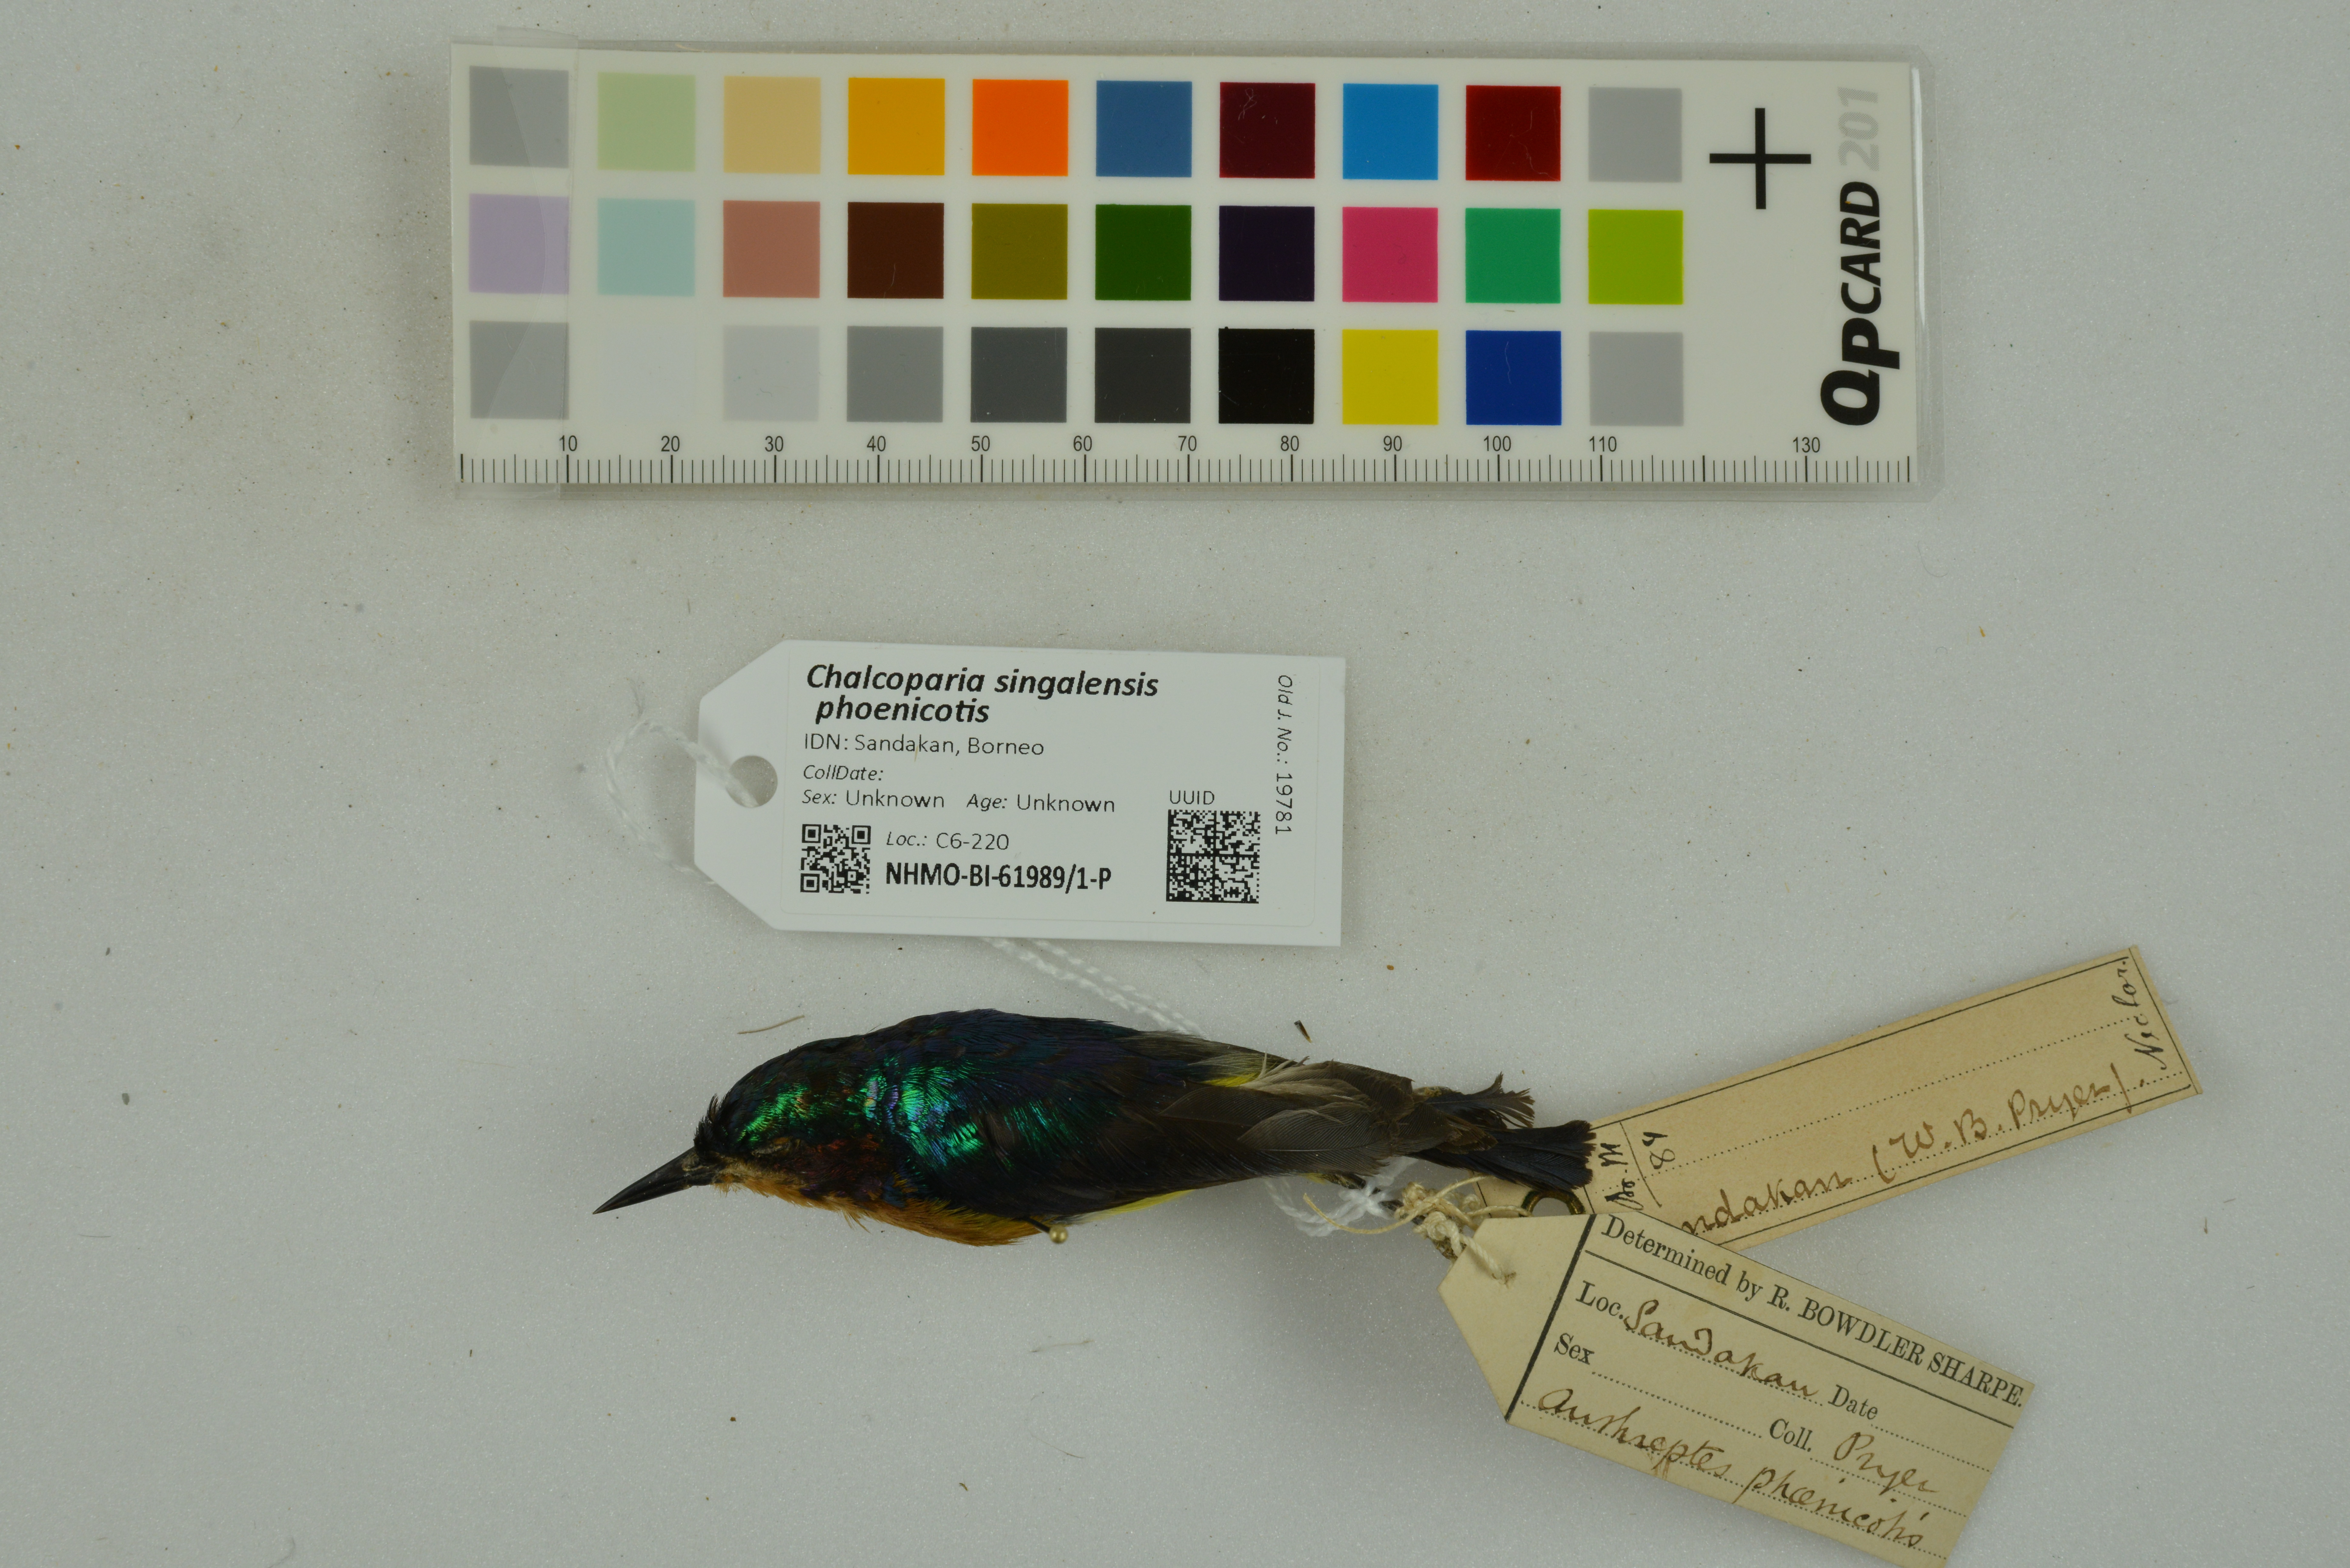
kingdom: Animalia
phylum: Chordata
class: Aves
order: Passeriformes
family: Nectariniidae
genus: Chalcoparia
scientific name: Chalcoparia singalensis
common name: Ruby-cheeked sunbird
